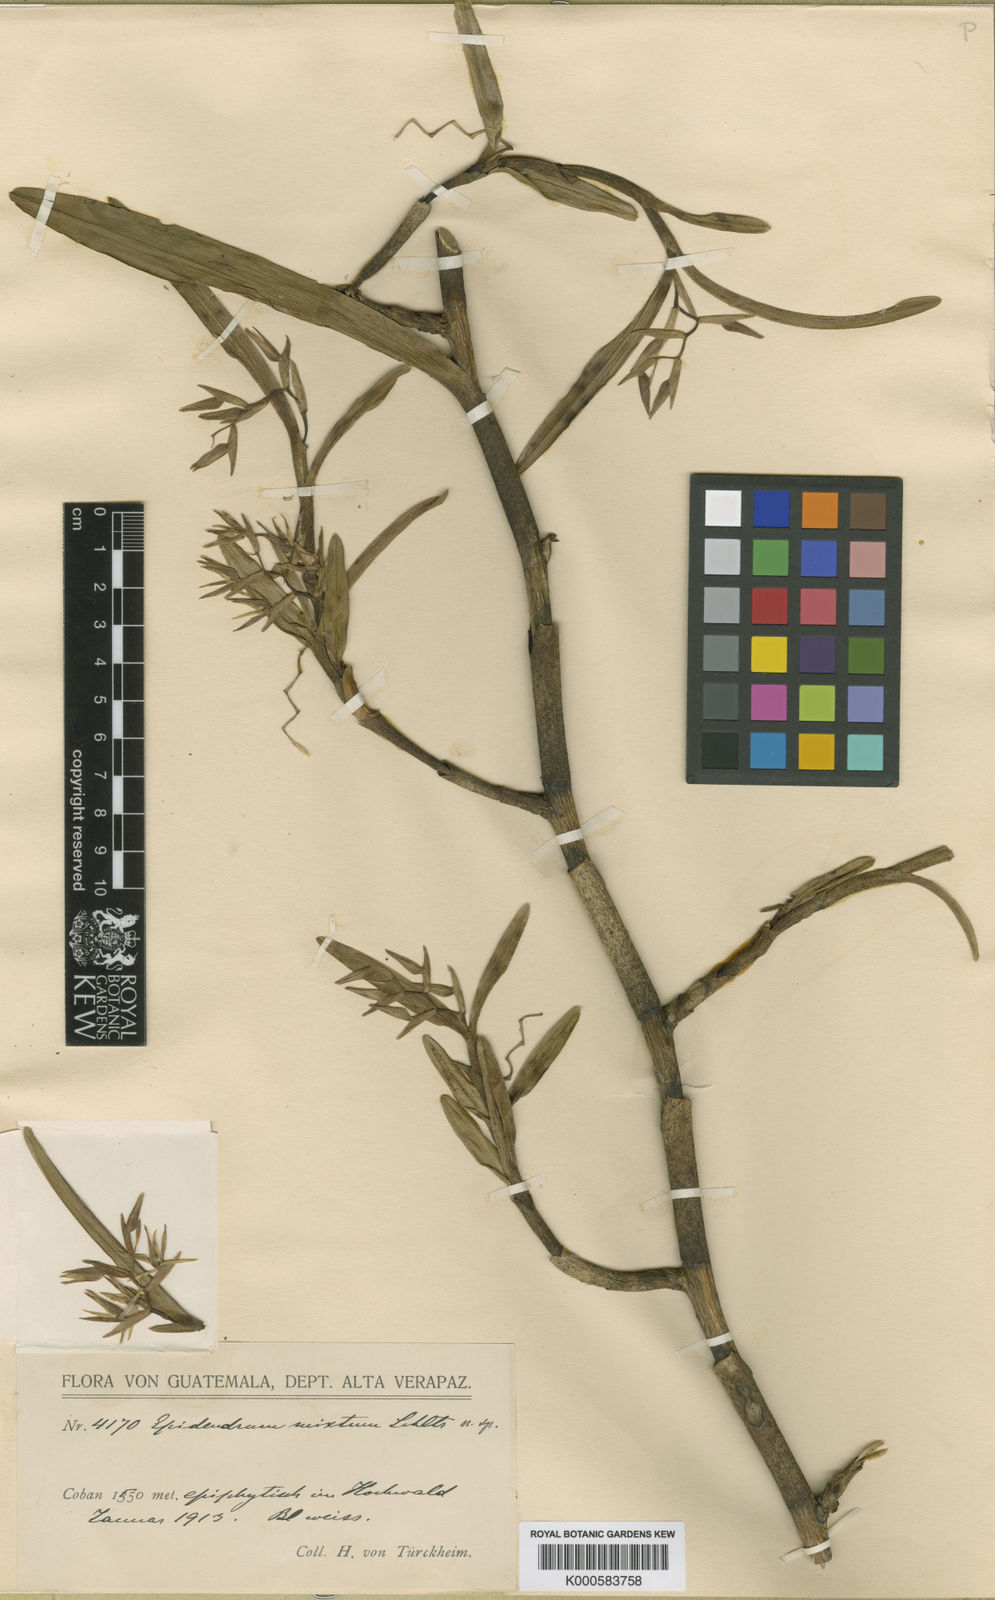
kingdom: Plantae
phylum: Tracheophyta
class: Liliopsida
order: Asparagales
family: Orchidaceae
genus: Epidendrum
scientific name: Epidendrum mixtum
